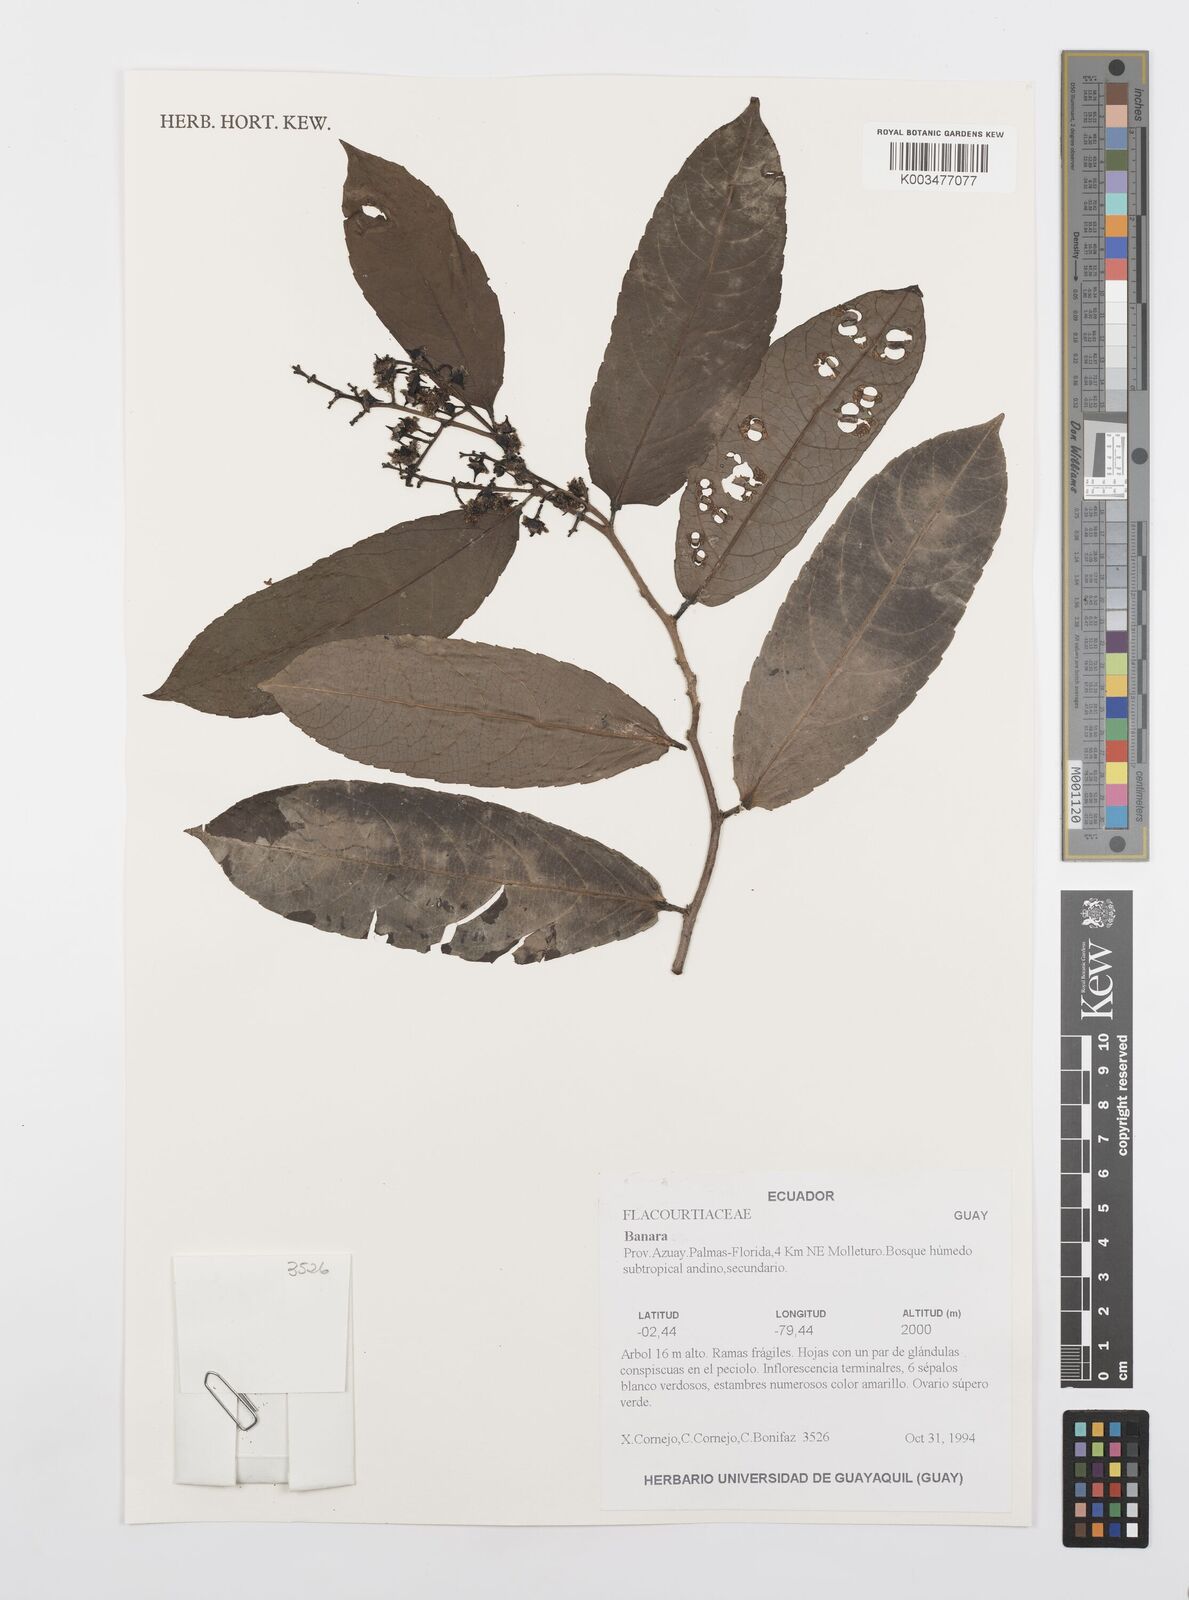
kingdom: Plantae
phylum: Tracheophyta
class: Magnoliopsida
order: Malpighiales
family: Salicaceae
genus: Banara
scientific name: Banara
